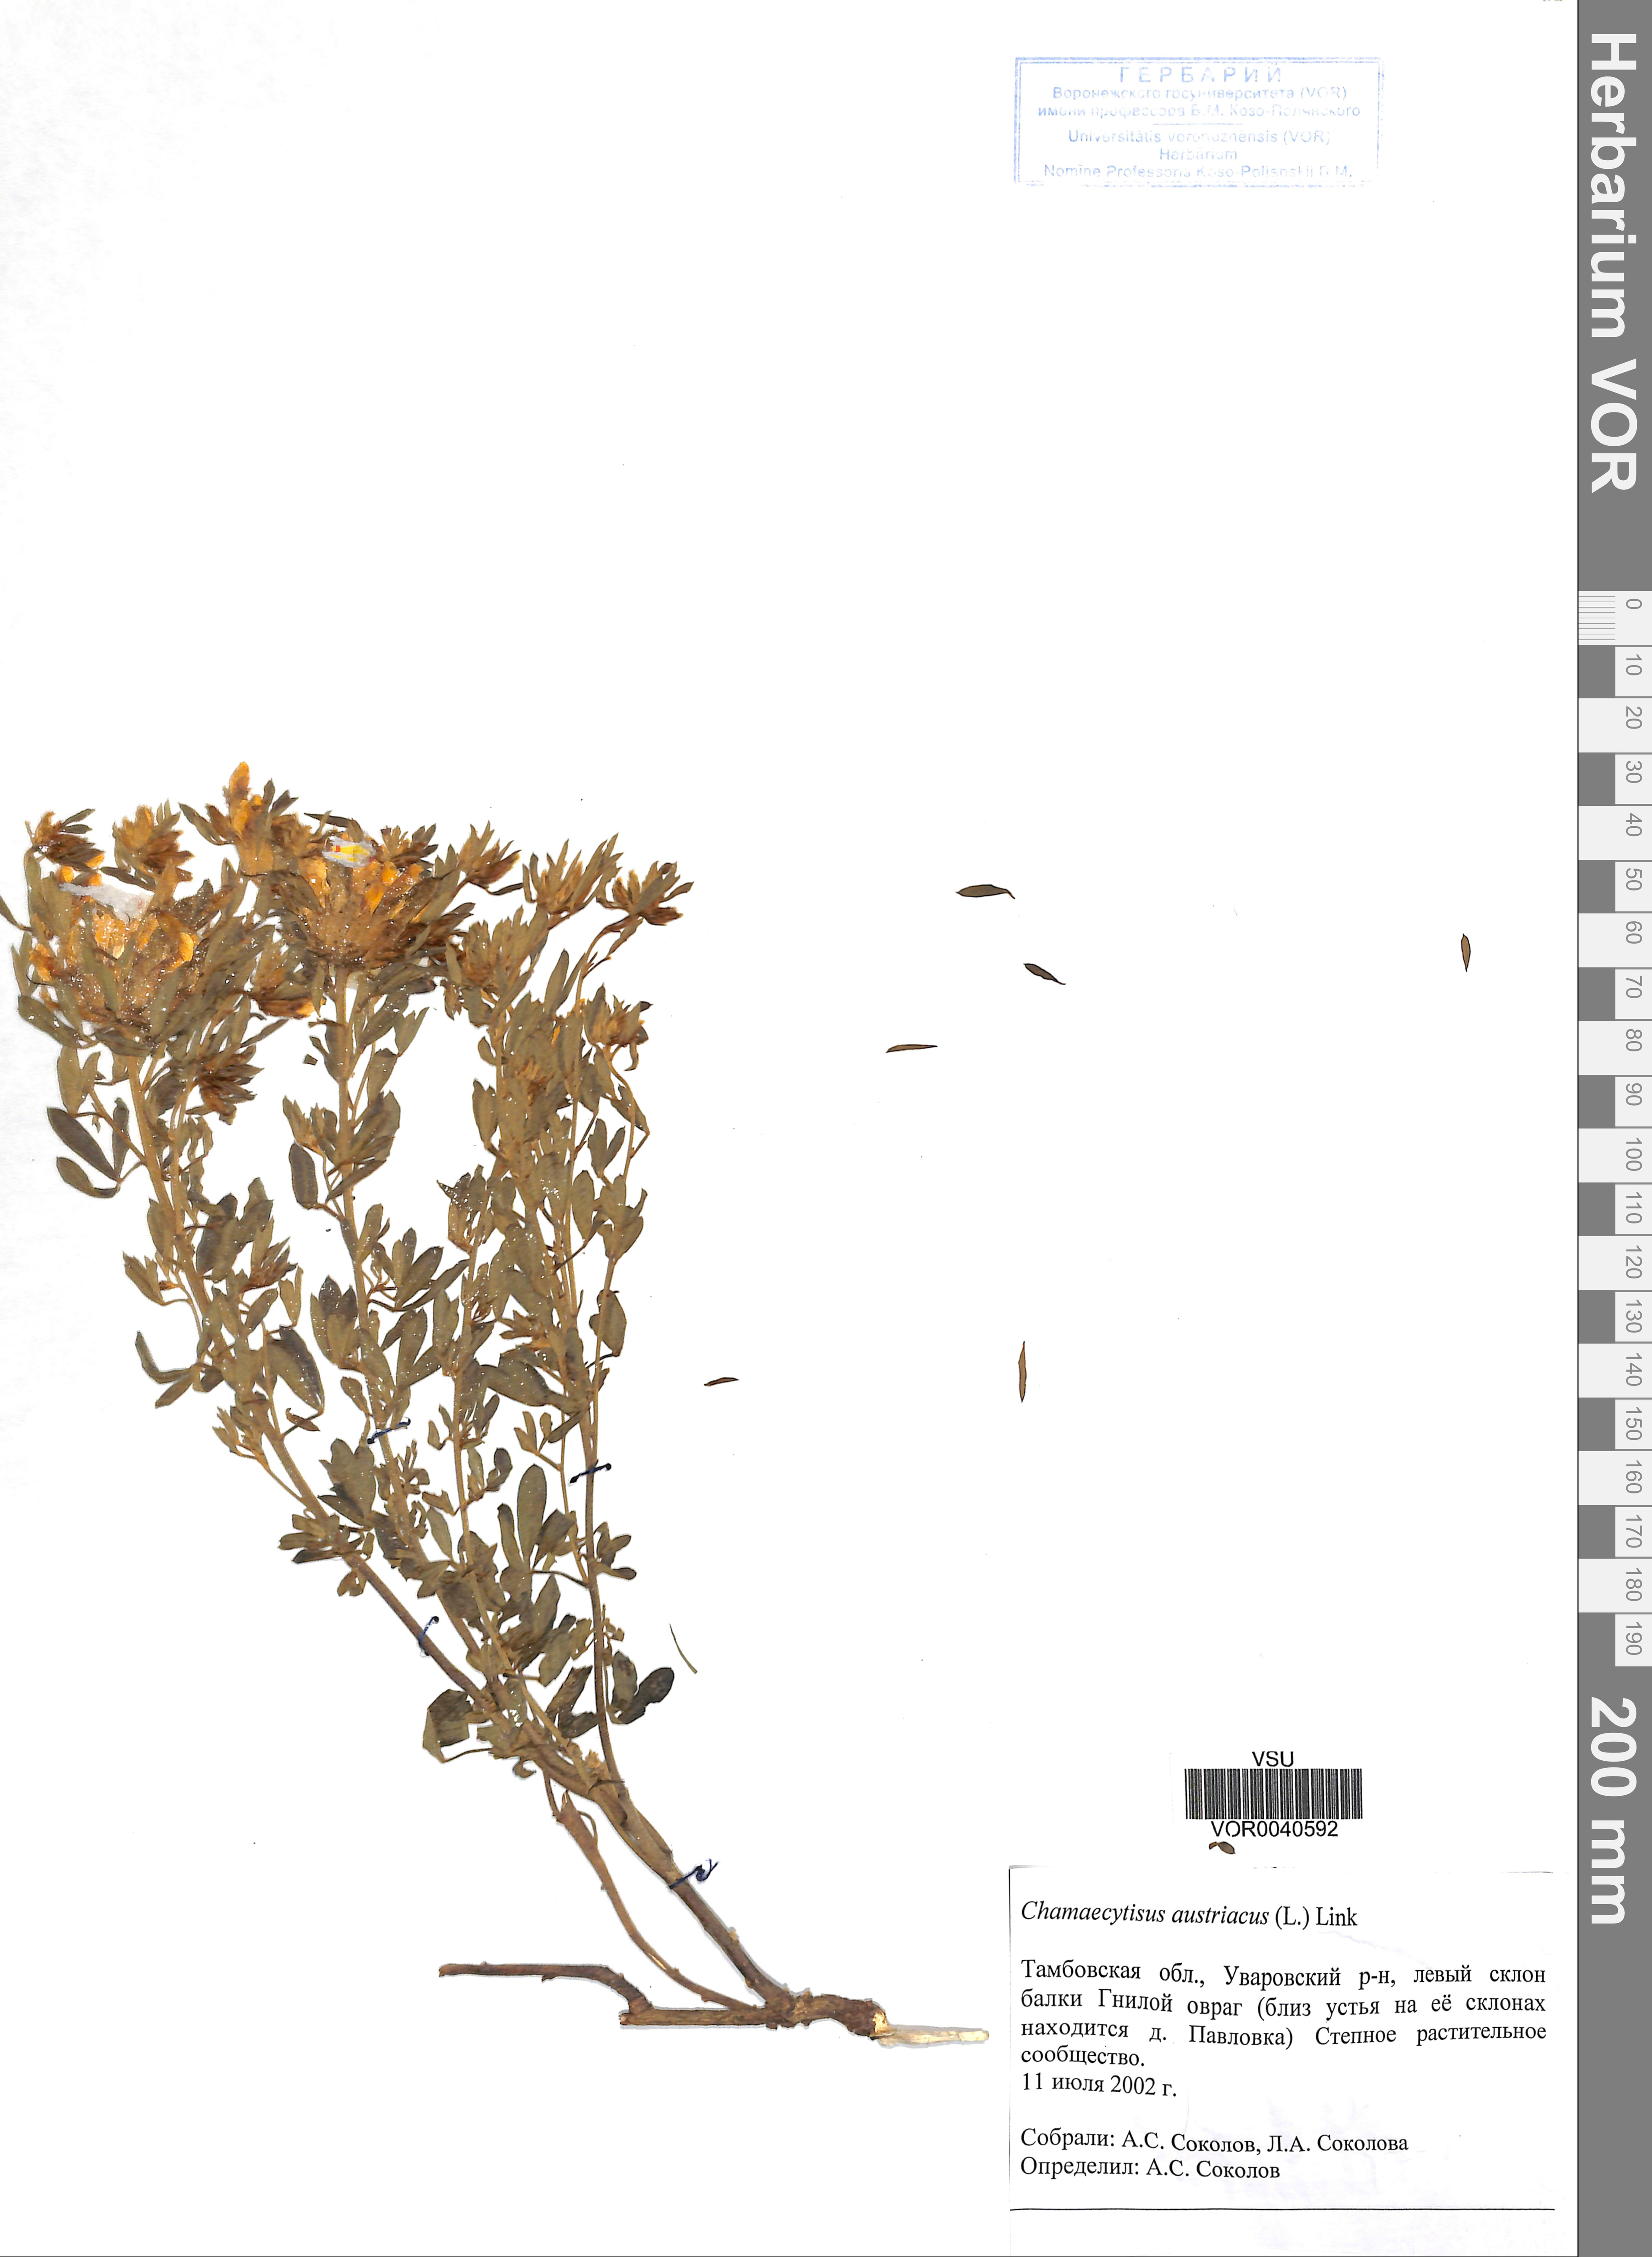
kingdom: Plantae
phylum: Tracheophyta
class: Magnoliopsida
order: Fabales
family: Fabaceae
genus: Chamaecytisus
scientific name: Chamaecytisus austriacus
